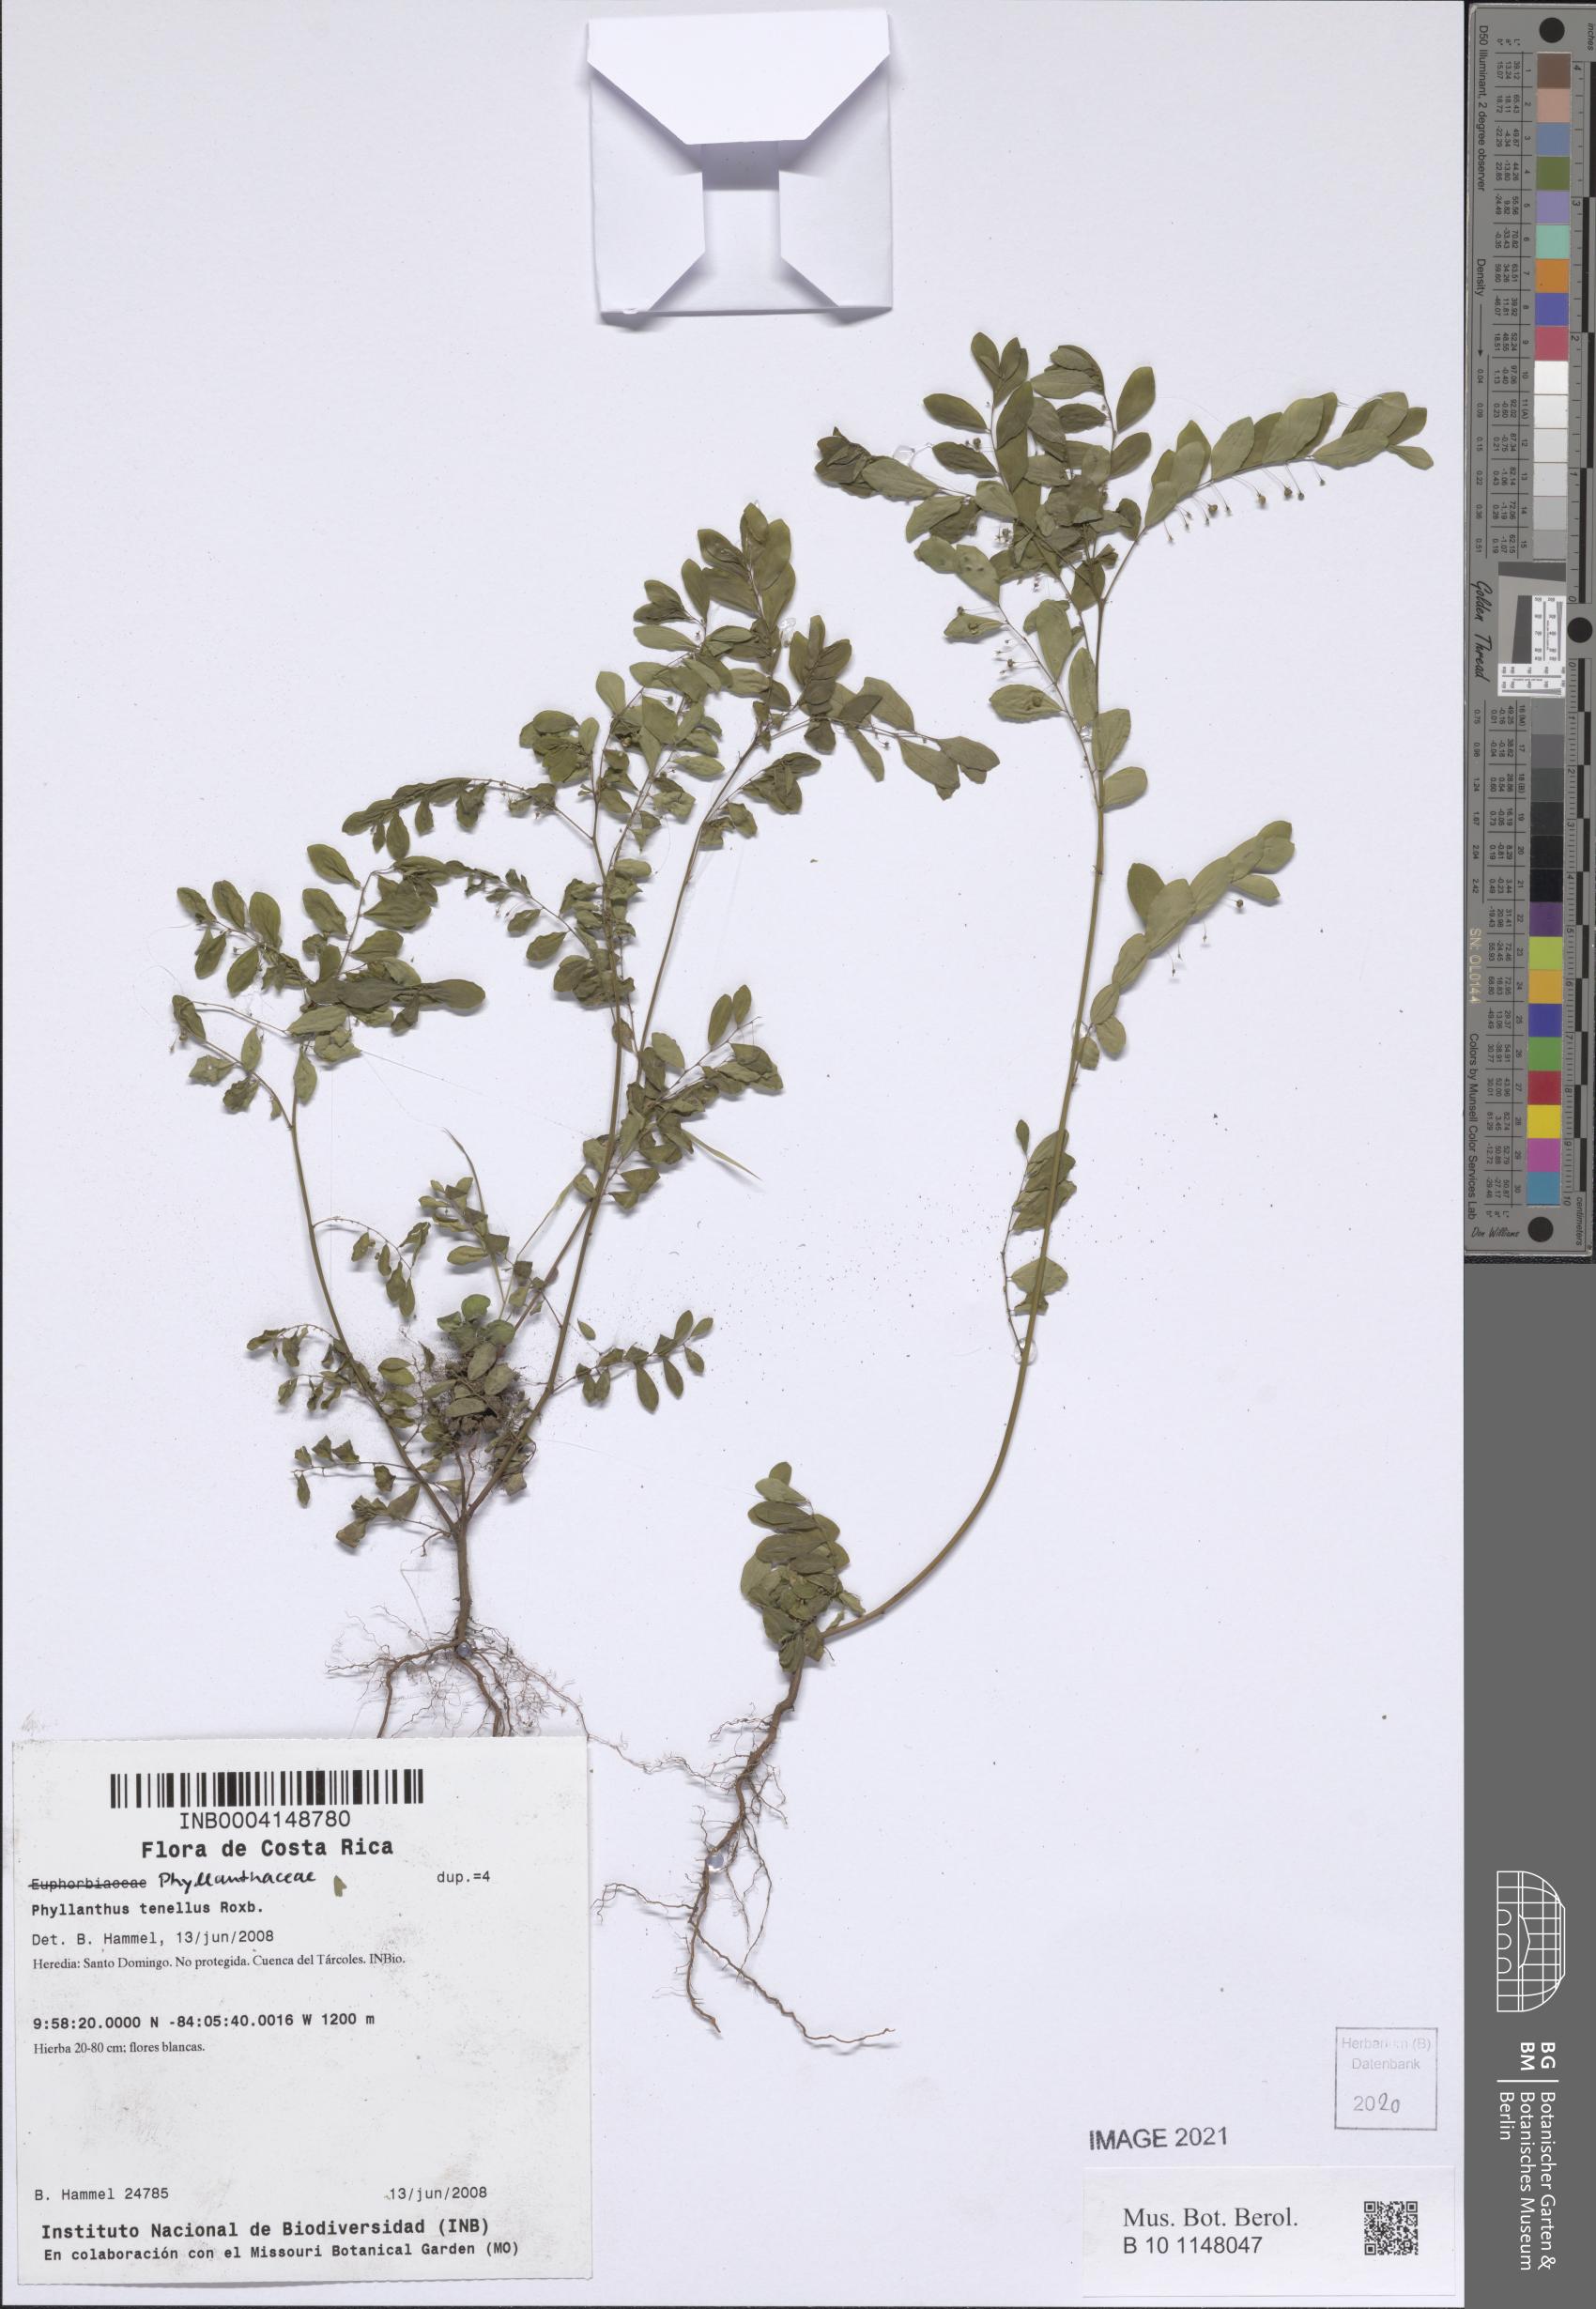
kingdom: Plantae
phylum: Tracheophyta
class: Magnoliopsida
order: Malpighiales
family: Phyllanthaceae
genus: Phyllanthus
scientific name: Phyllanthus tenellus
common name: Mascarene island leaf-flower
